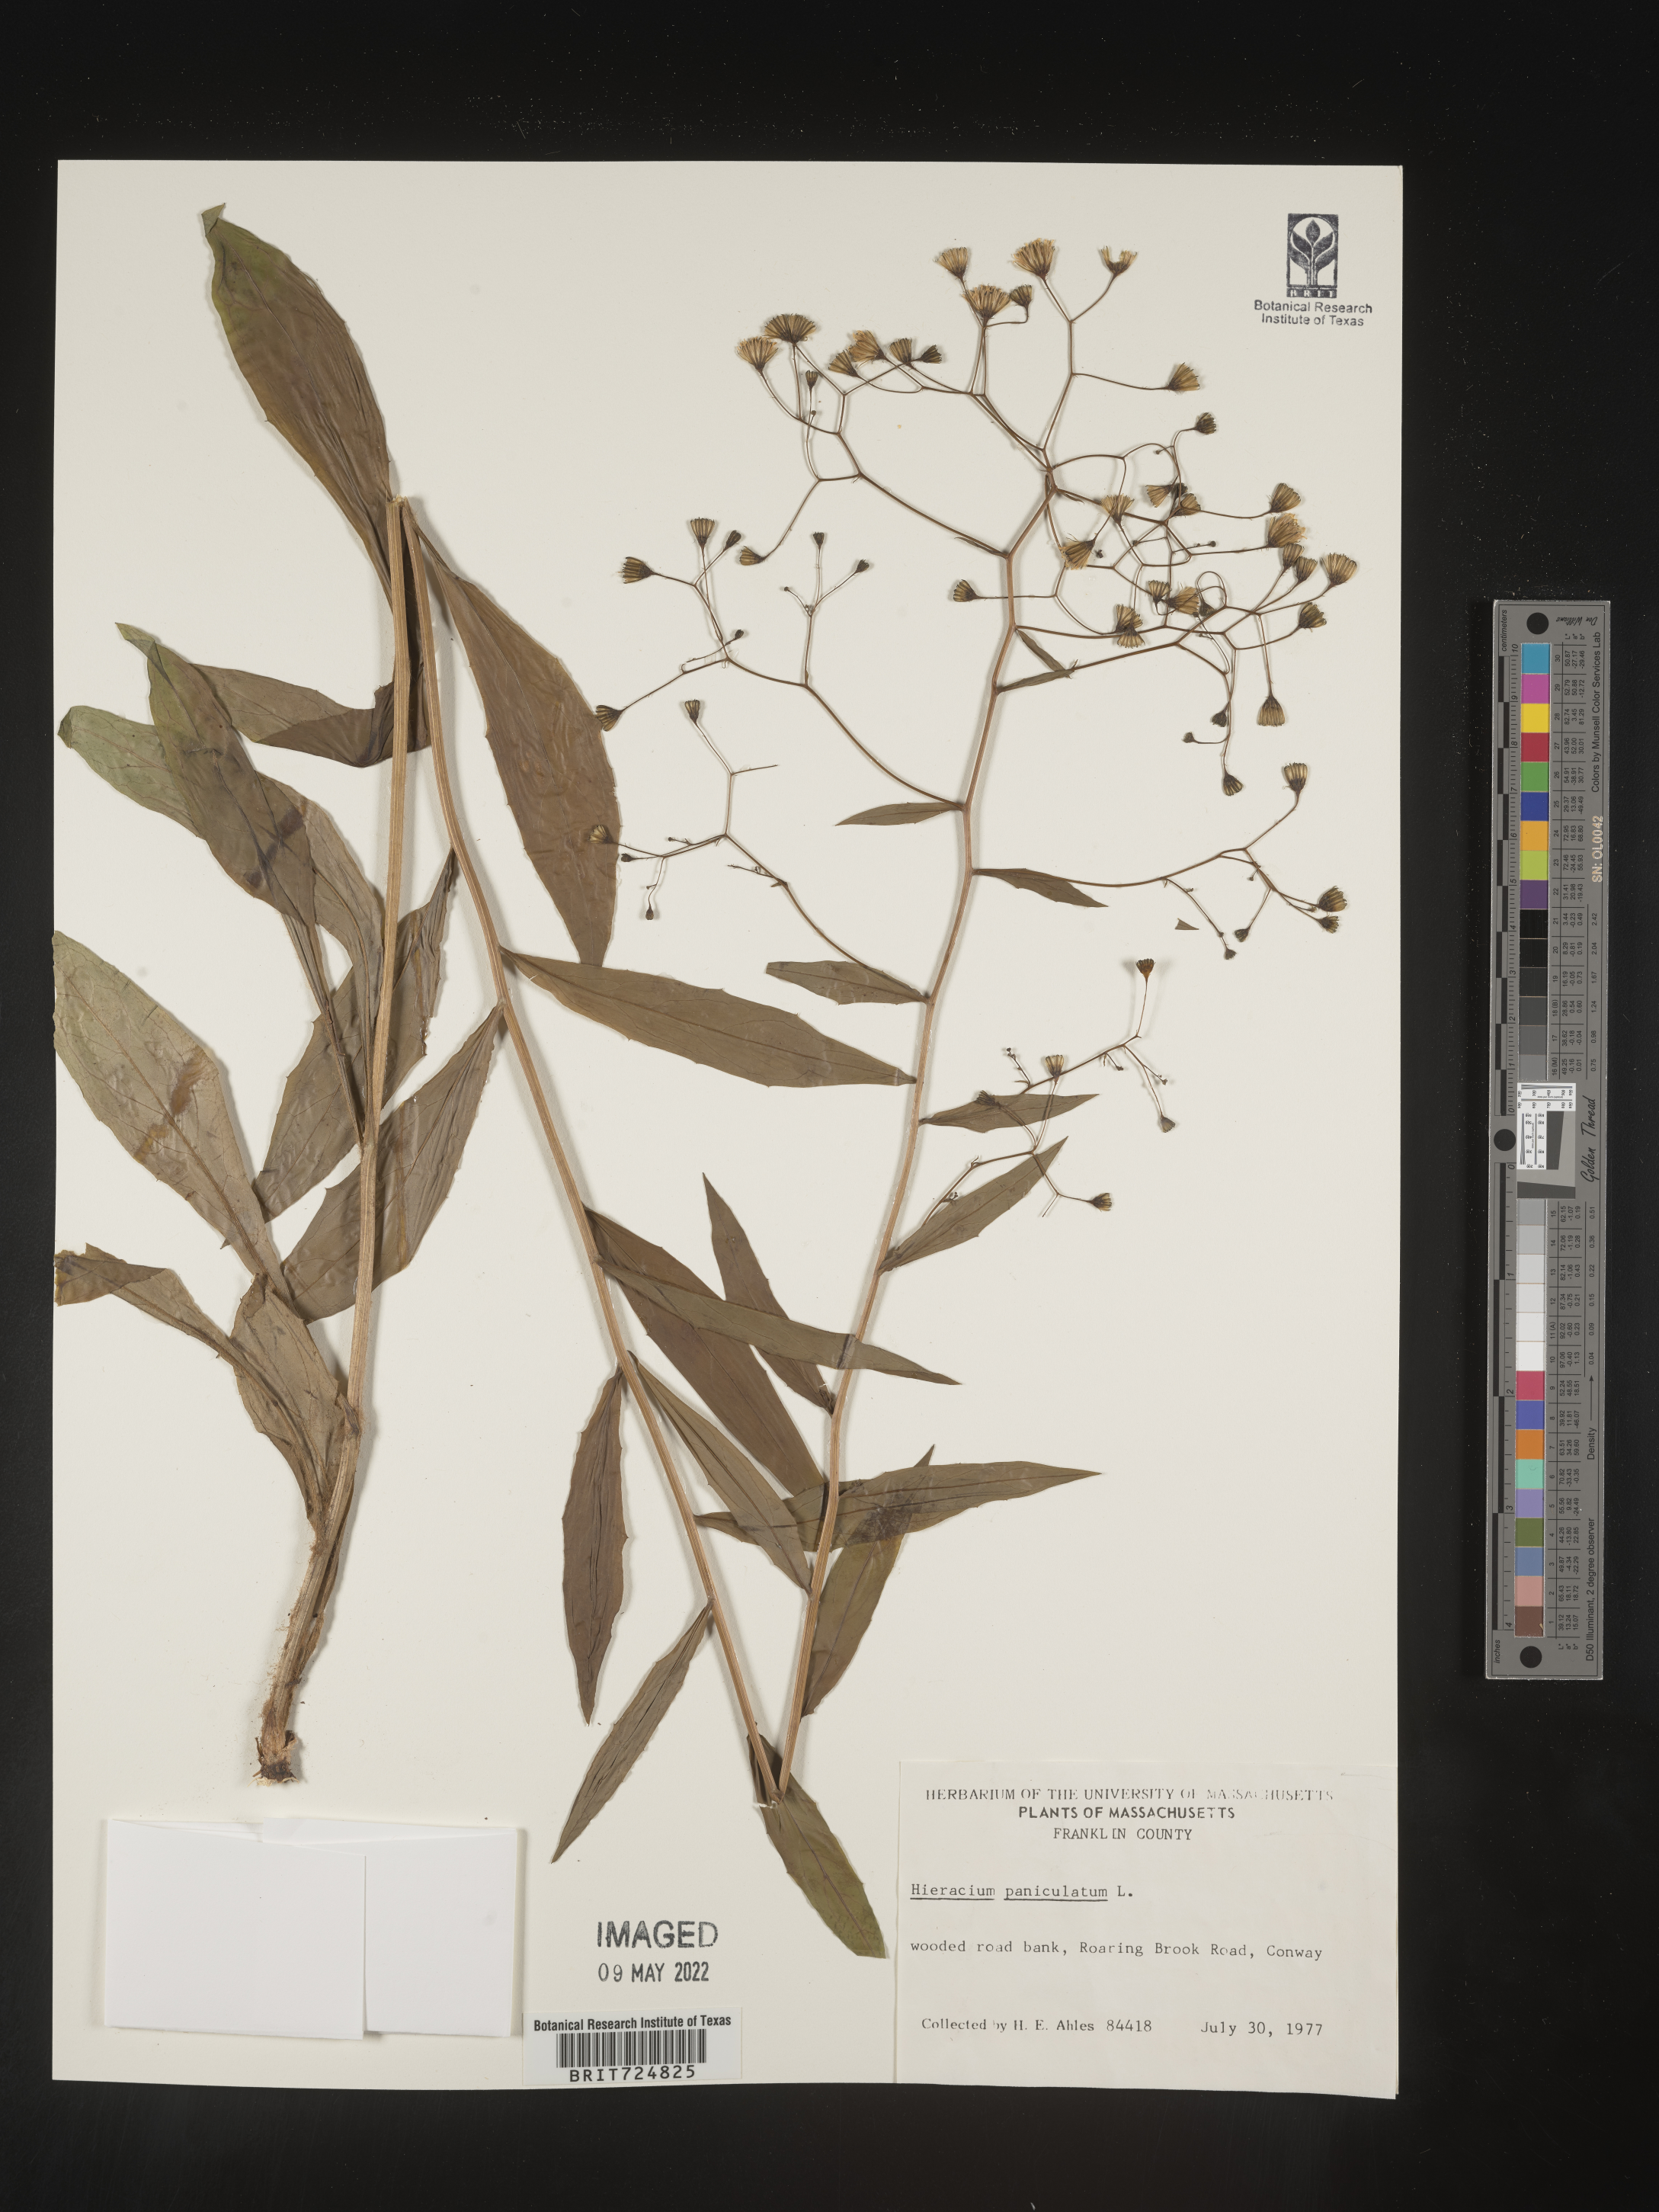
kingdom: Plantae
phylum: Tracheophyta
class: Magnoliopsida
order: Asterales
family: Asteraceae
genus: Hieracium
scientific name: Hieracium paniculatum
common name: Allegheny hawkweed
